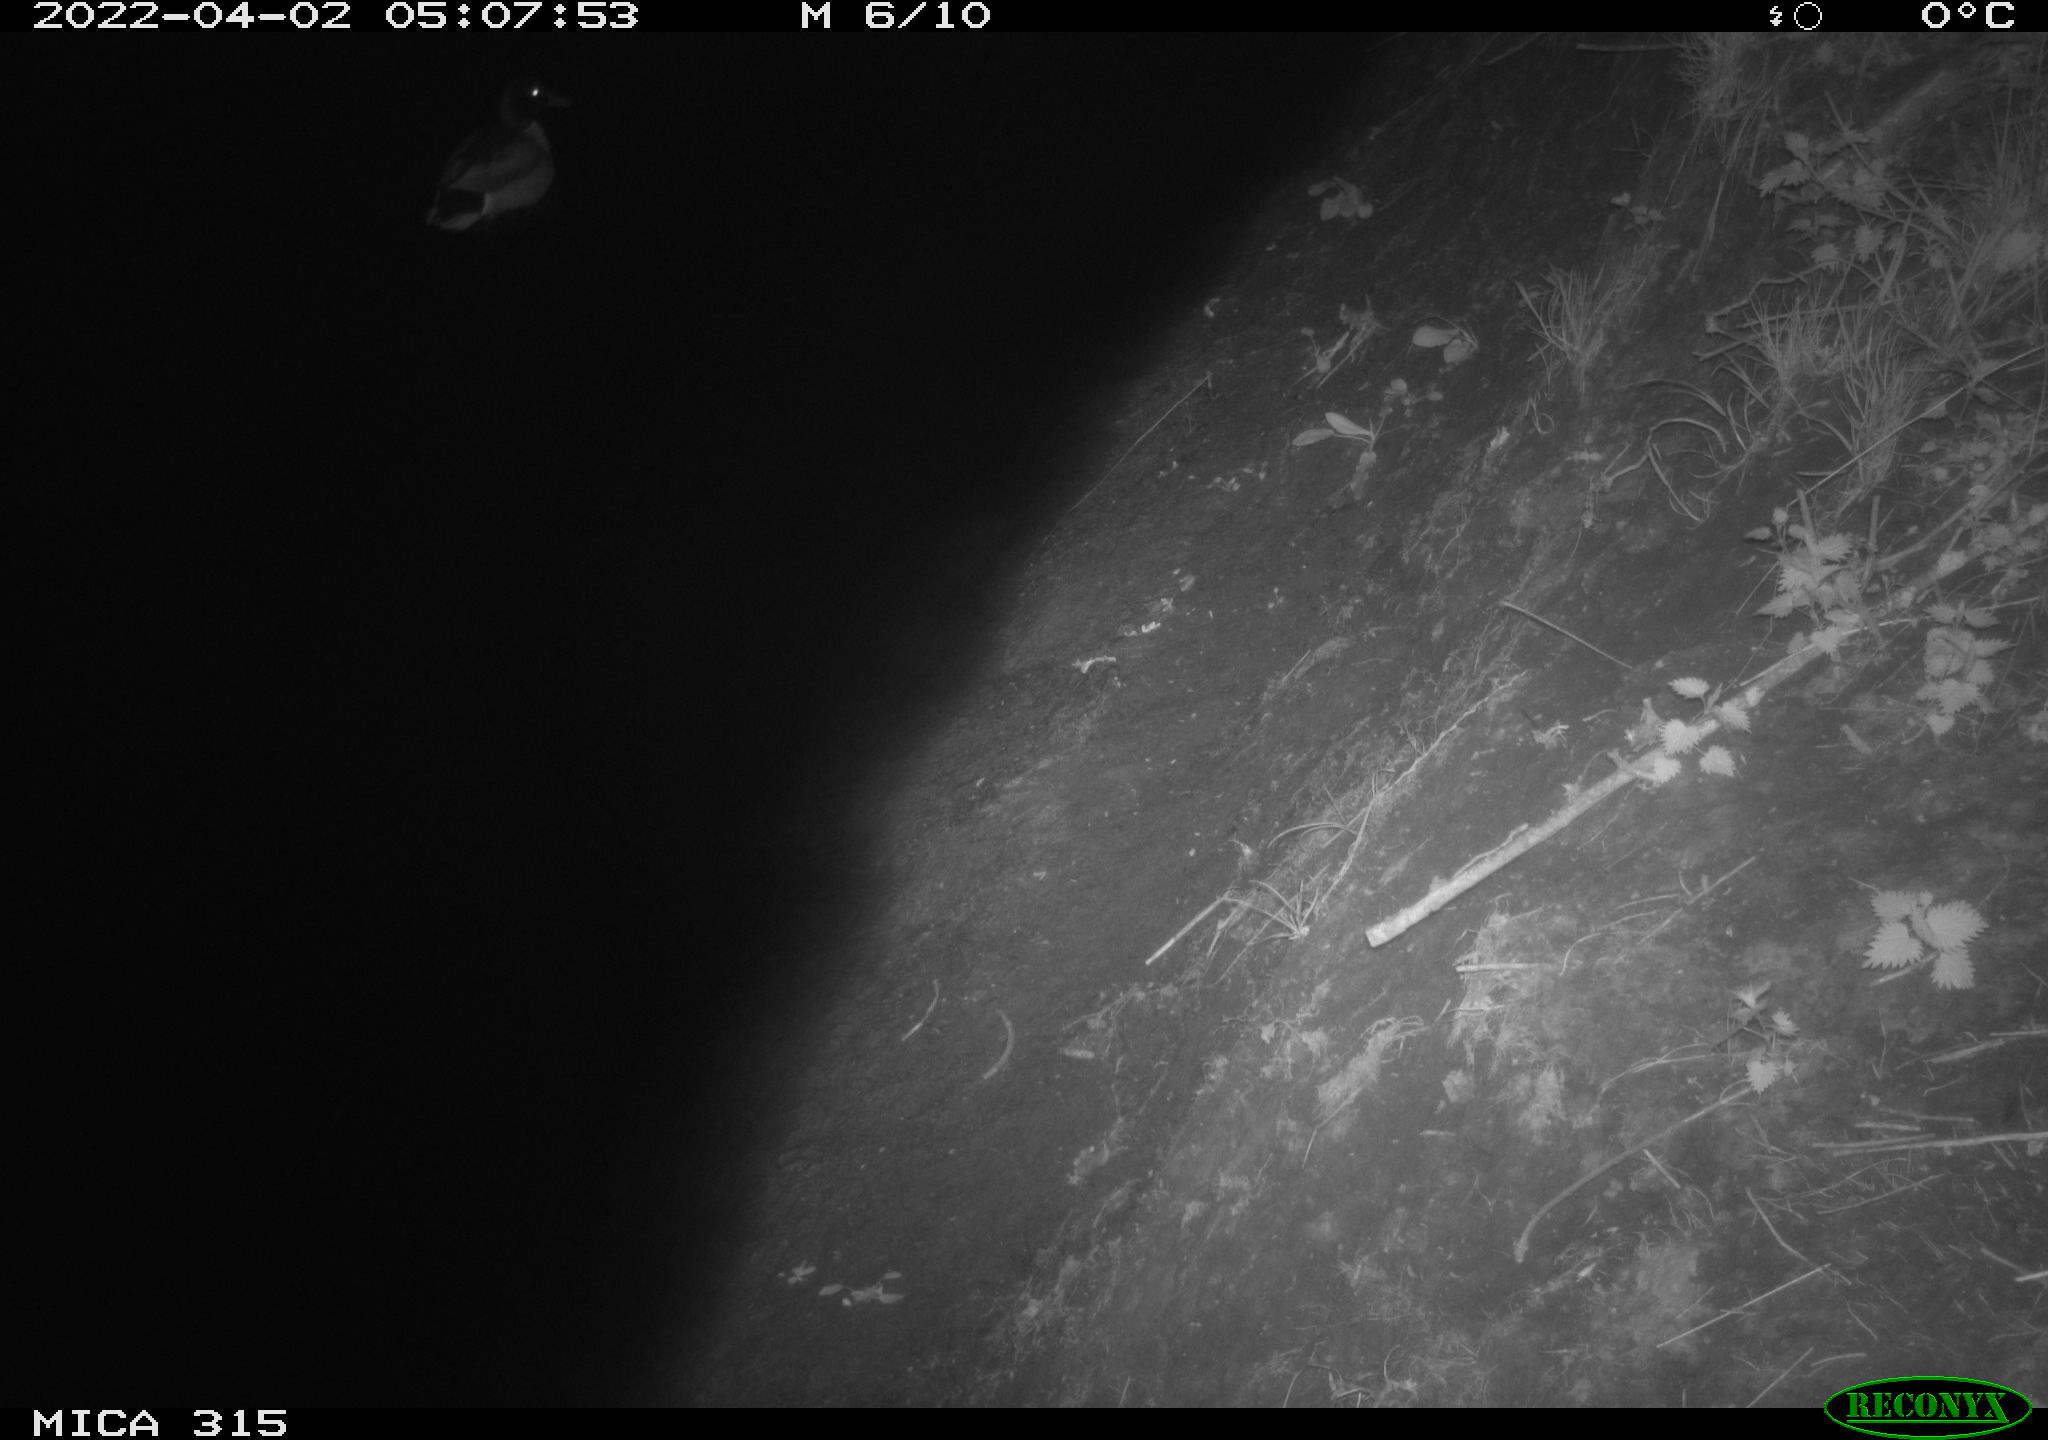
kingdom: Animalia
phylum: Chordata
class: Aves
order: Anseriformes
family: Anatidae
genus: Anas
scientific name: Anas platyrhynchos
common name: Mallard
